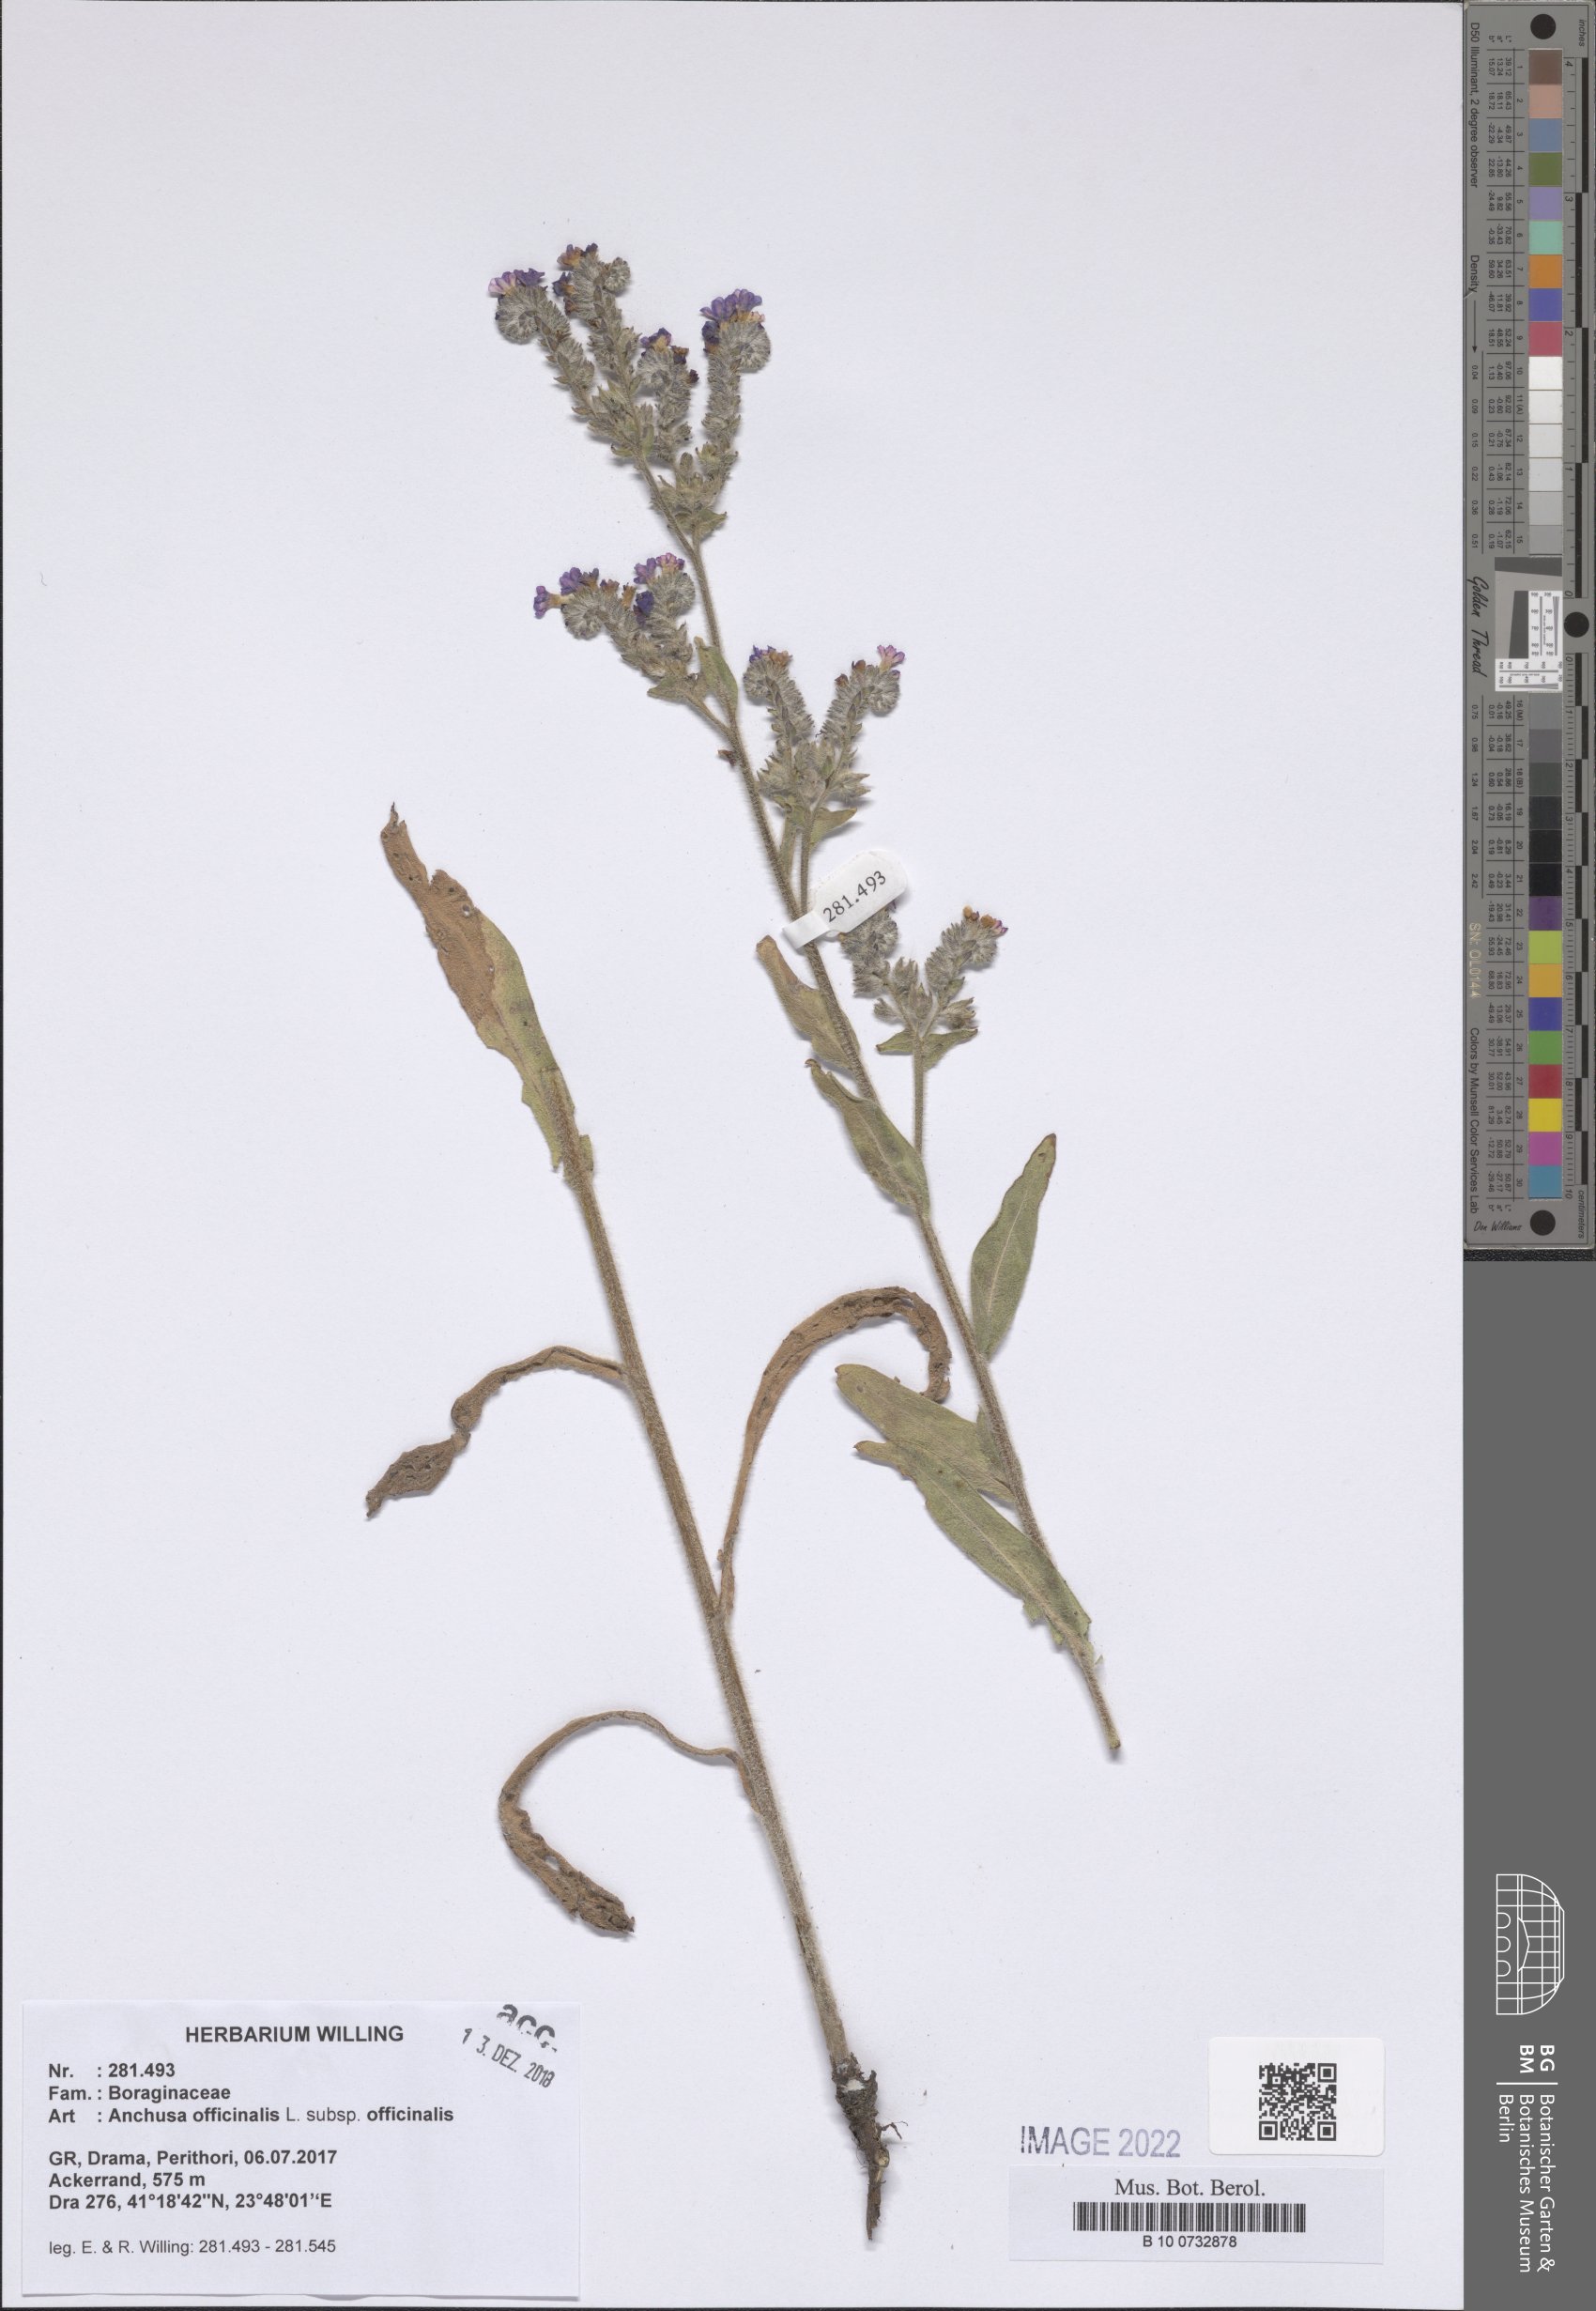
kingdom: Plantae
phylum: Tracheophyta
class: Magnoliopsida
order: Boraginales
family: Boraginaceae
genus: Anchusa
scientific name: Anchusa officinalis
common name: Alkanet
